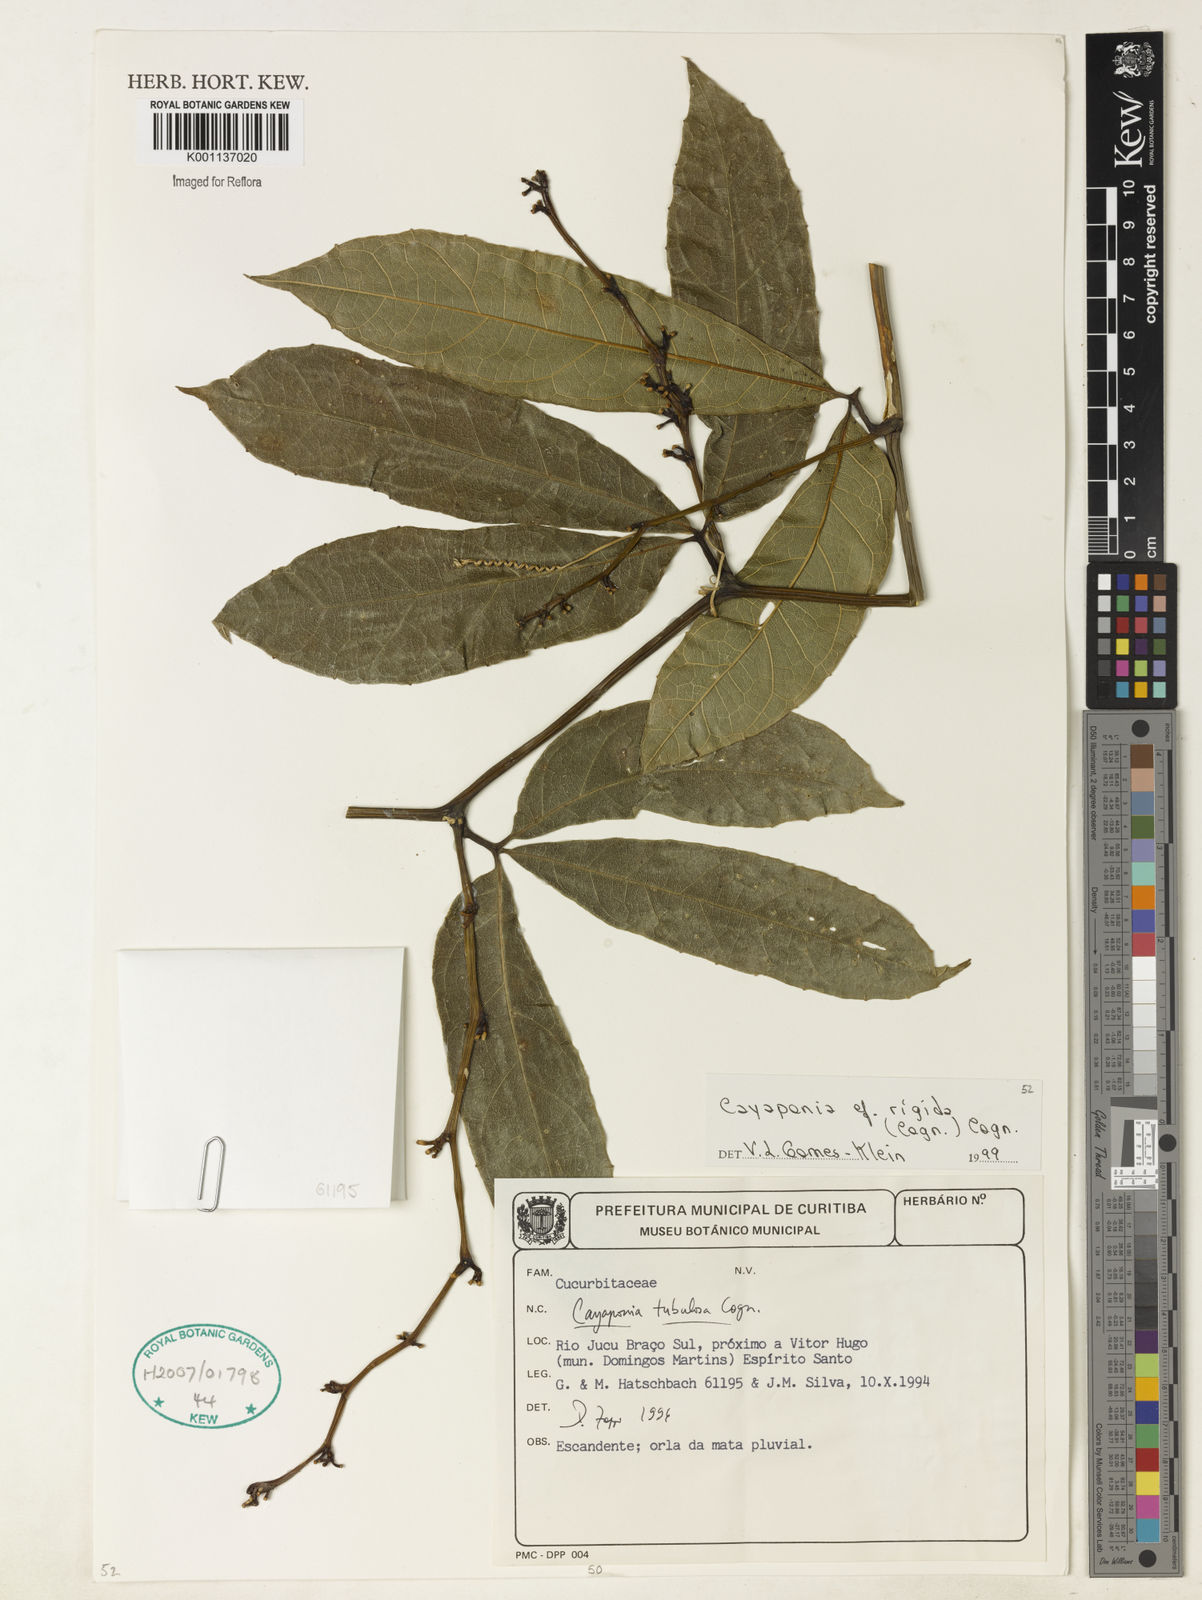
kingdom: Plantae
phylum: Tracheophyta
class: Magnoliopsida
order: Cucurbitales
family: Cucurbitaceae
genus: Cayaponia
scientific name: Cayaponia rigida
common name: Boskomkommer
